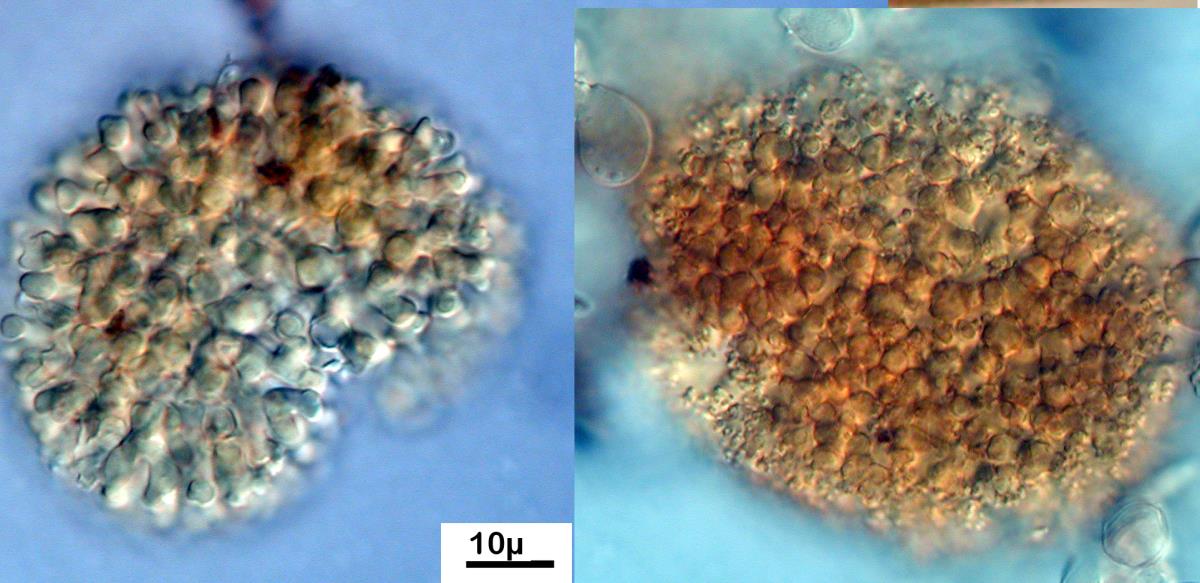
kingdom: Fungi
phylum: Ascomycota
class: Sordariomycetes
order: Pisorisporiales
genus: Brocchiosphaera
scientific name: Brocchiosphaera brocchiata
